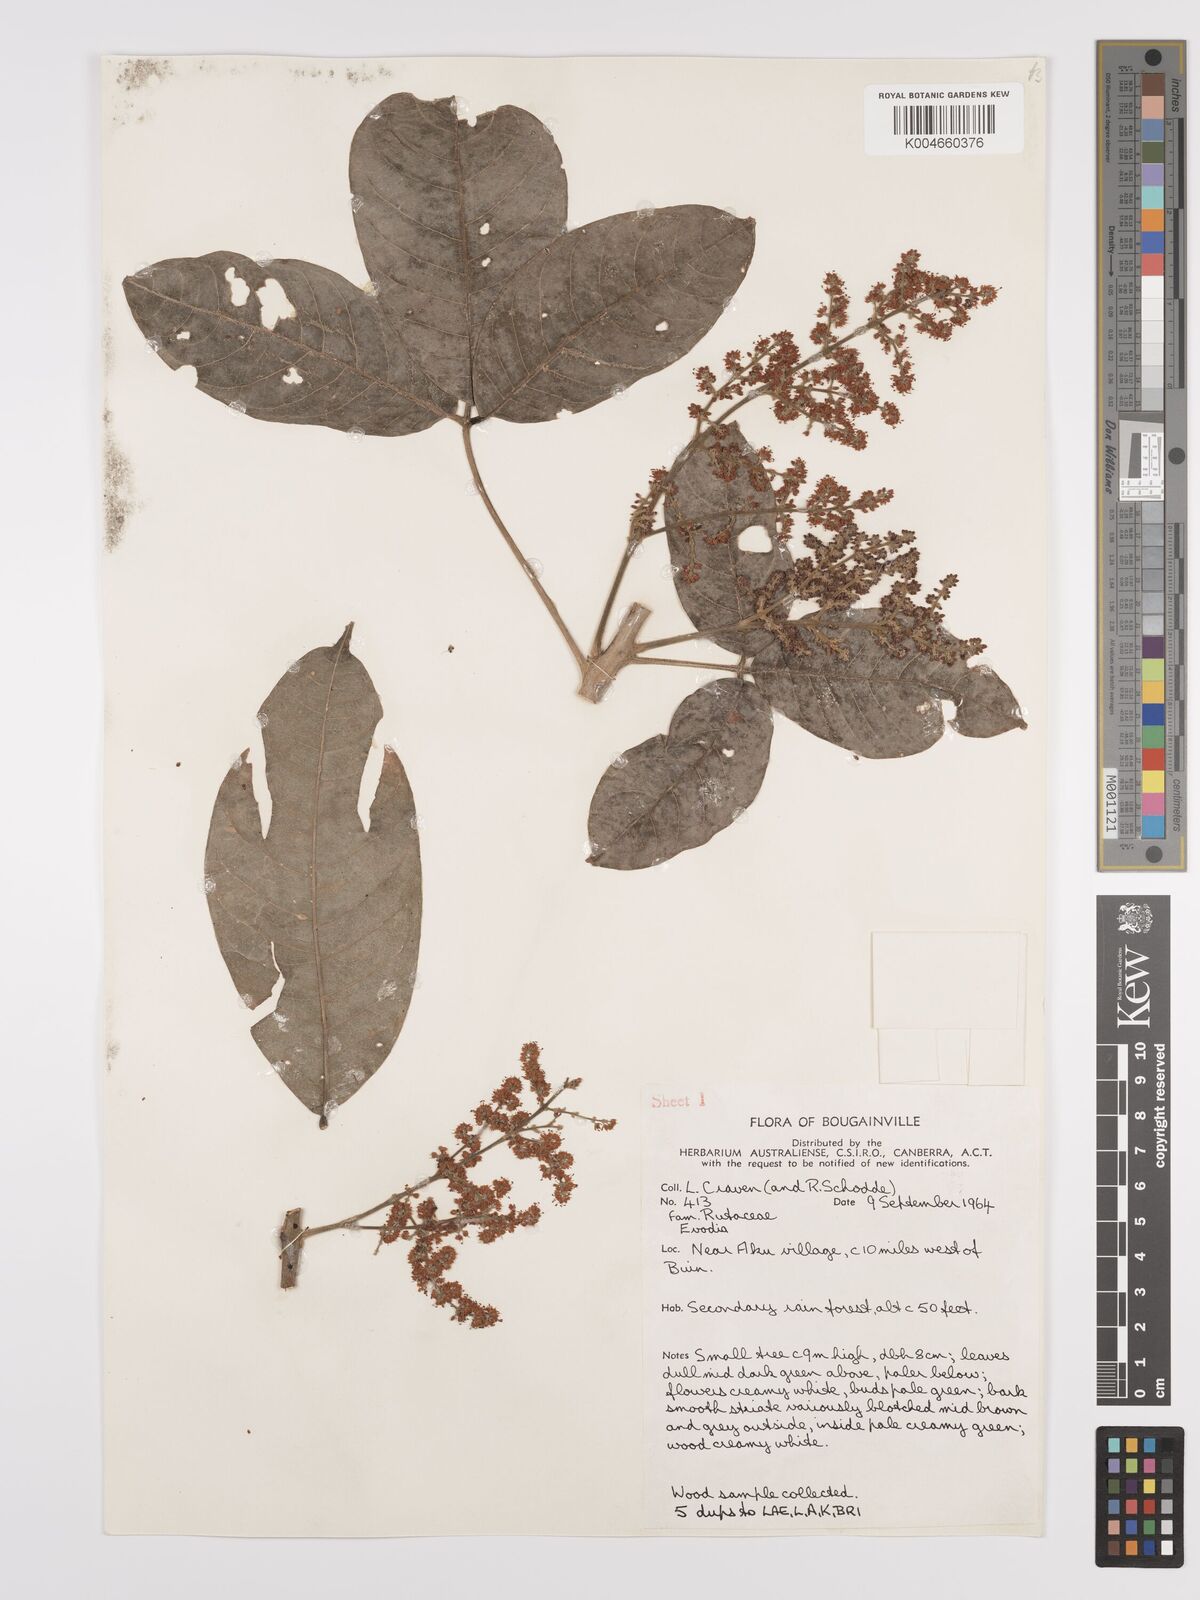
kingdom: Plantae
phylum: Tracheophyta
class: Magnoliopsida
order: Sapindales
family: Rutaceae
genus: Euodia
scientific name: Euodia
